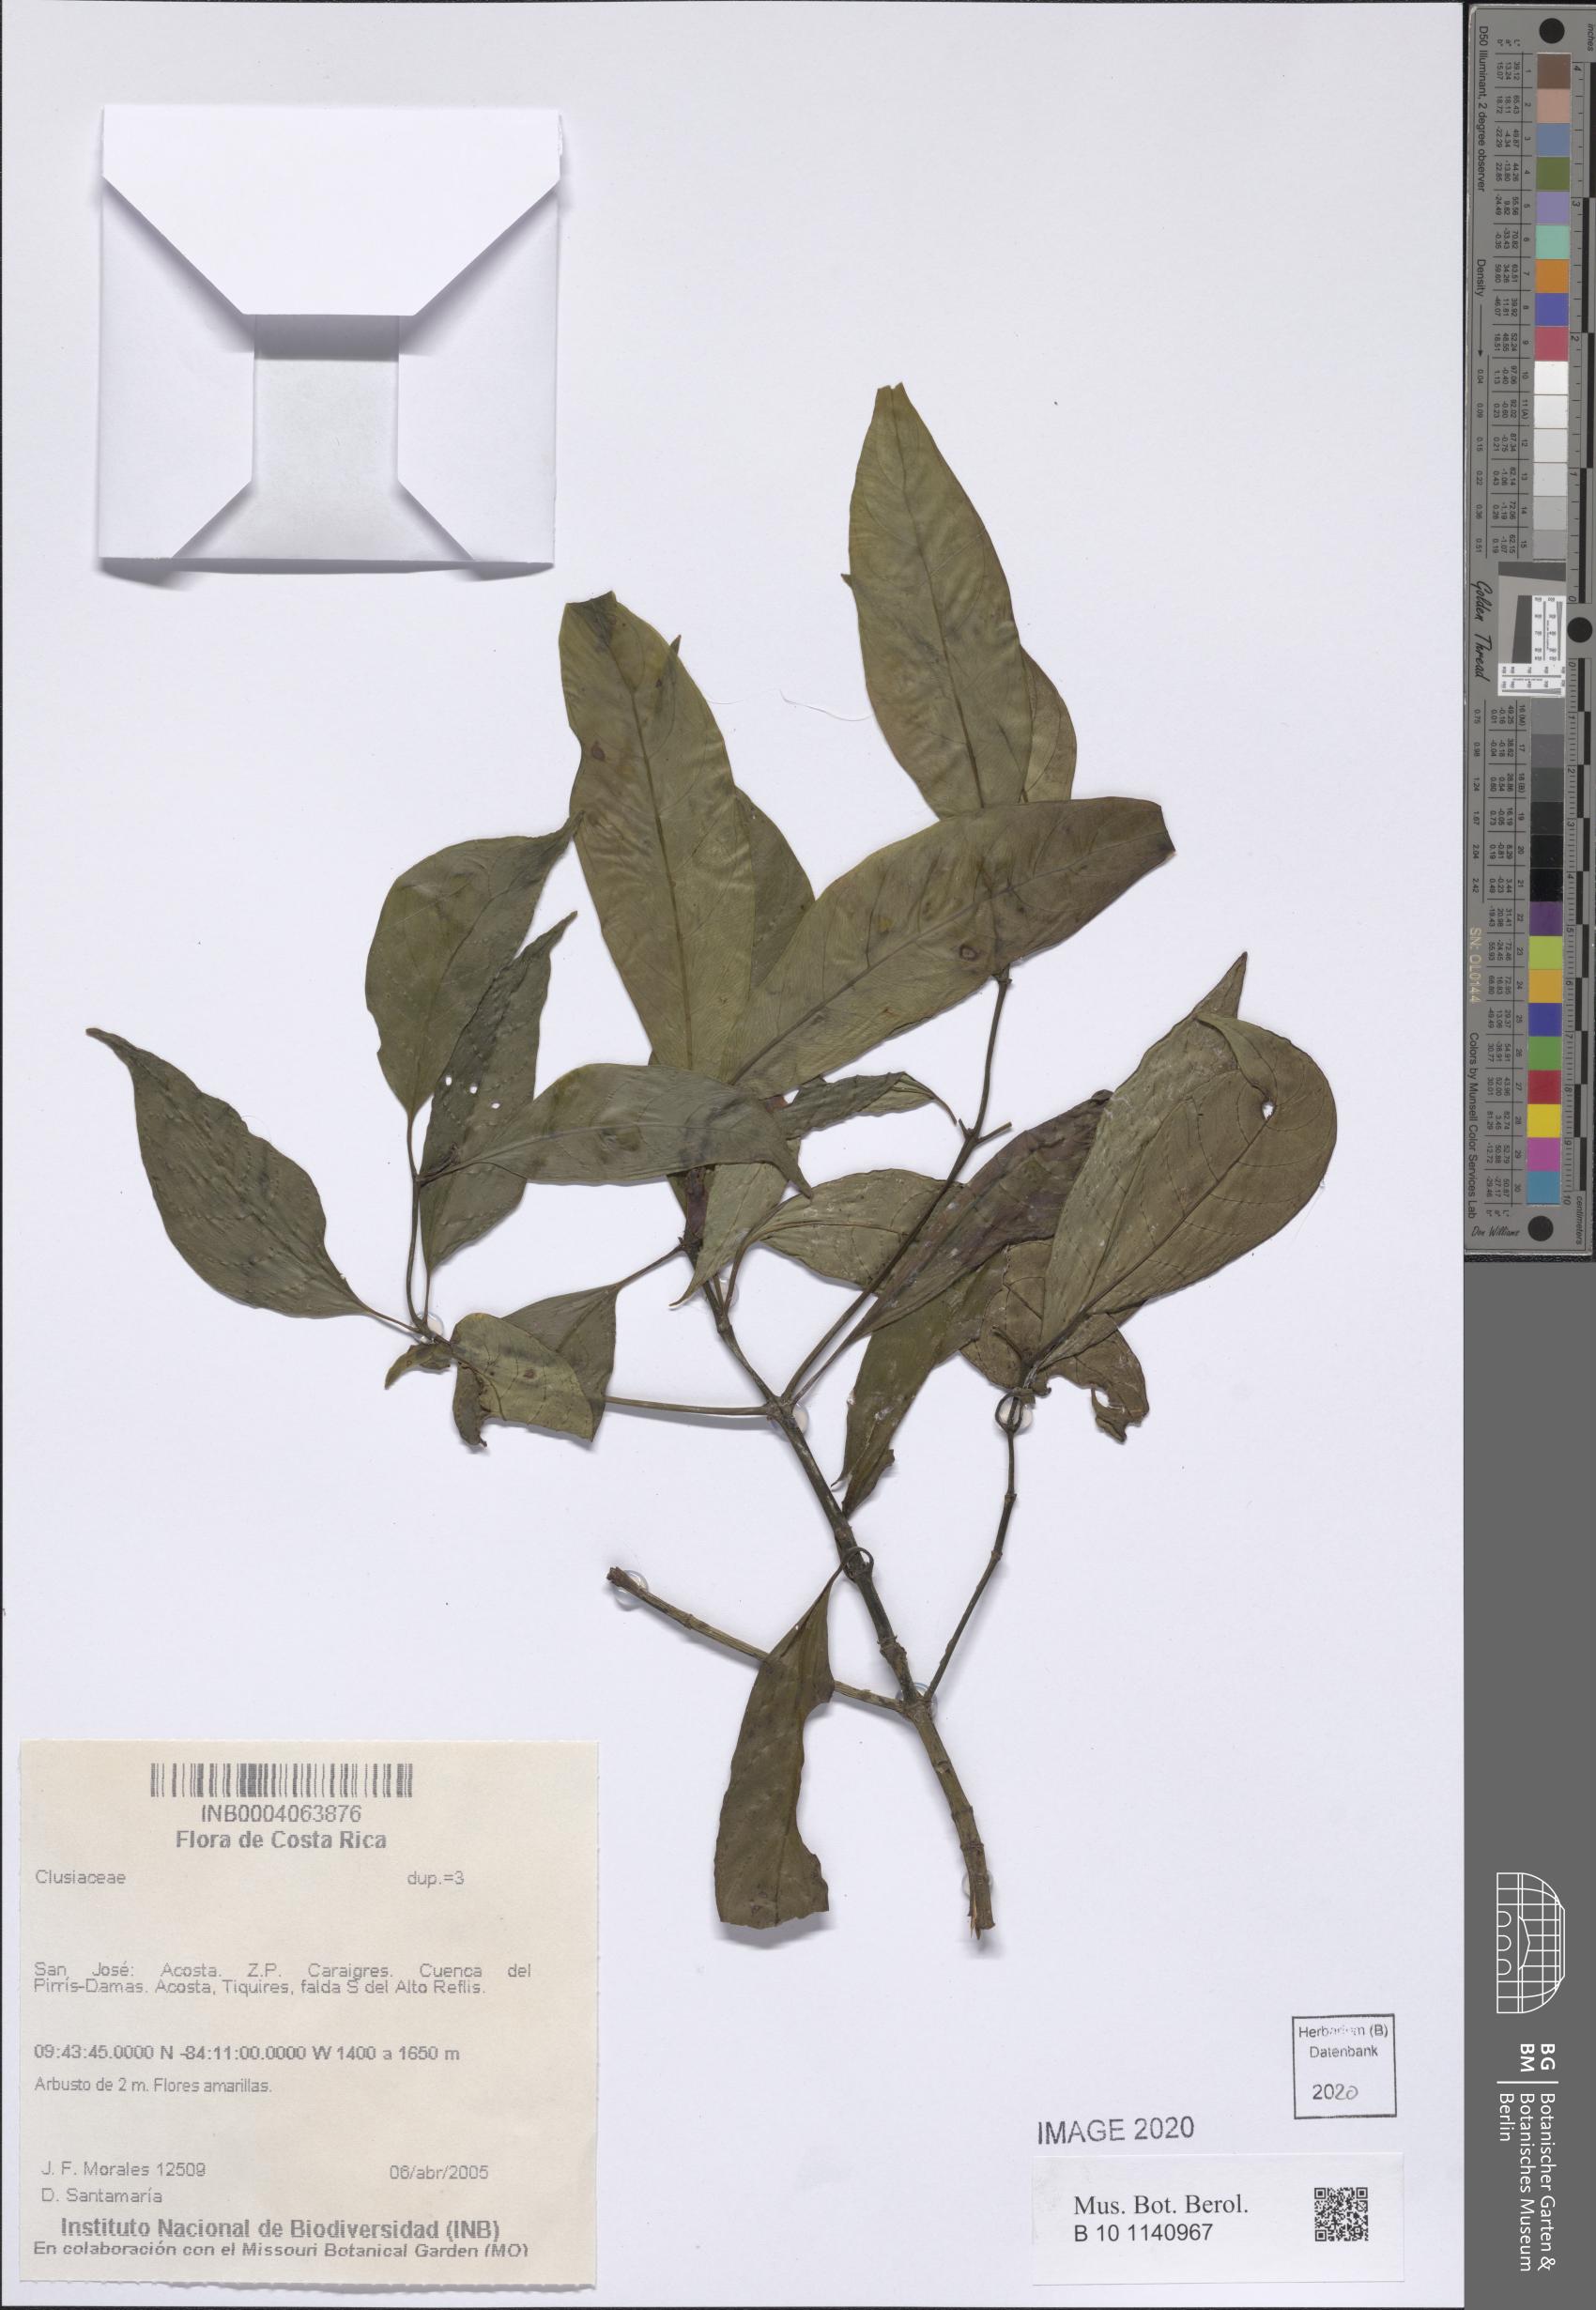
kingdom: Plantae
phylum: Tracheophyta
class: Magnoliopsida
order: Malpighiales
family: Clusiaceae
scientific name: Clusiaceae
